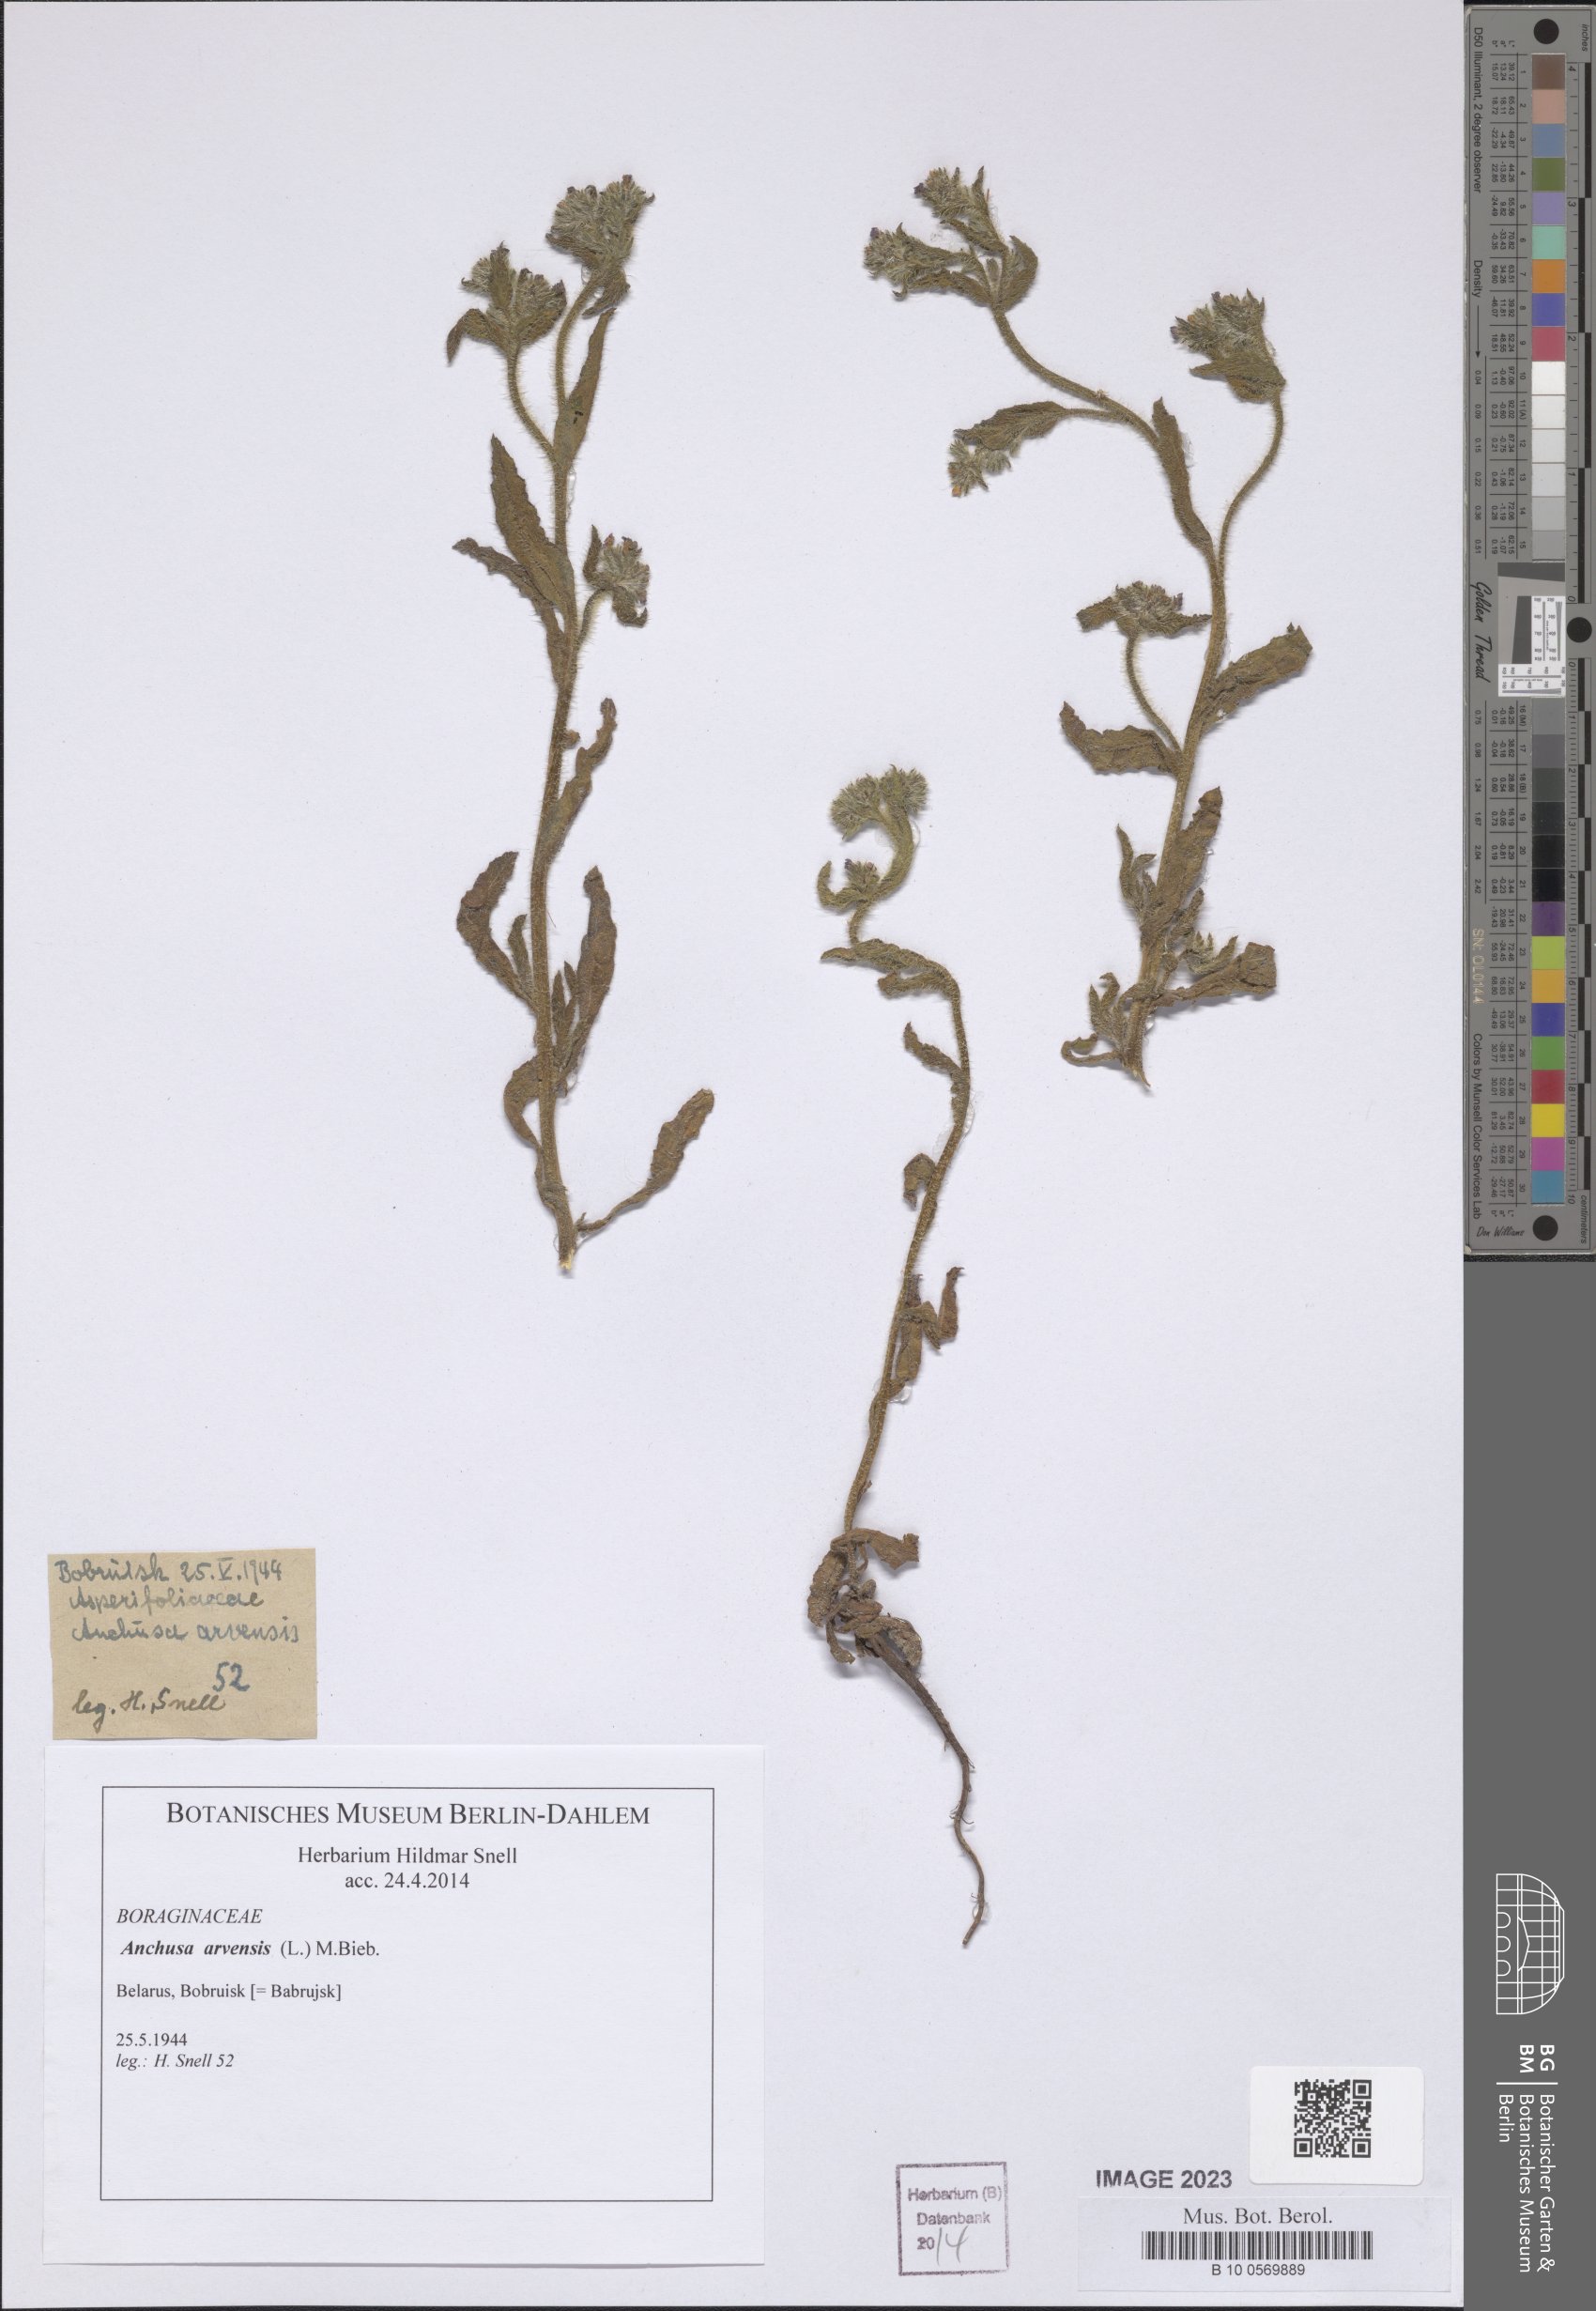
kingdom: Plantae
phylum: Tracheophyta
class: Magnoliopsida
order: Boraginales
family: Boraginaceae
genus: Lycopsis
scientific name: Lycopsis arvensis
